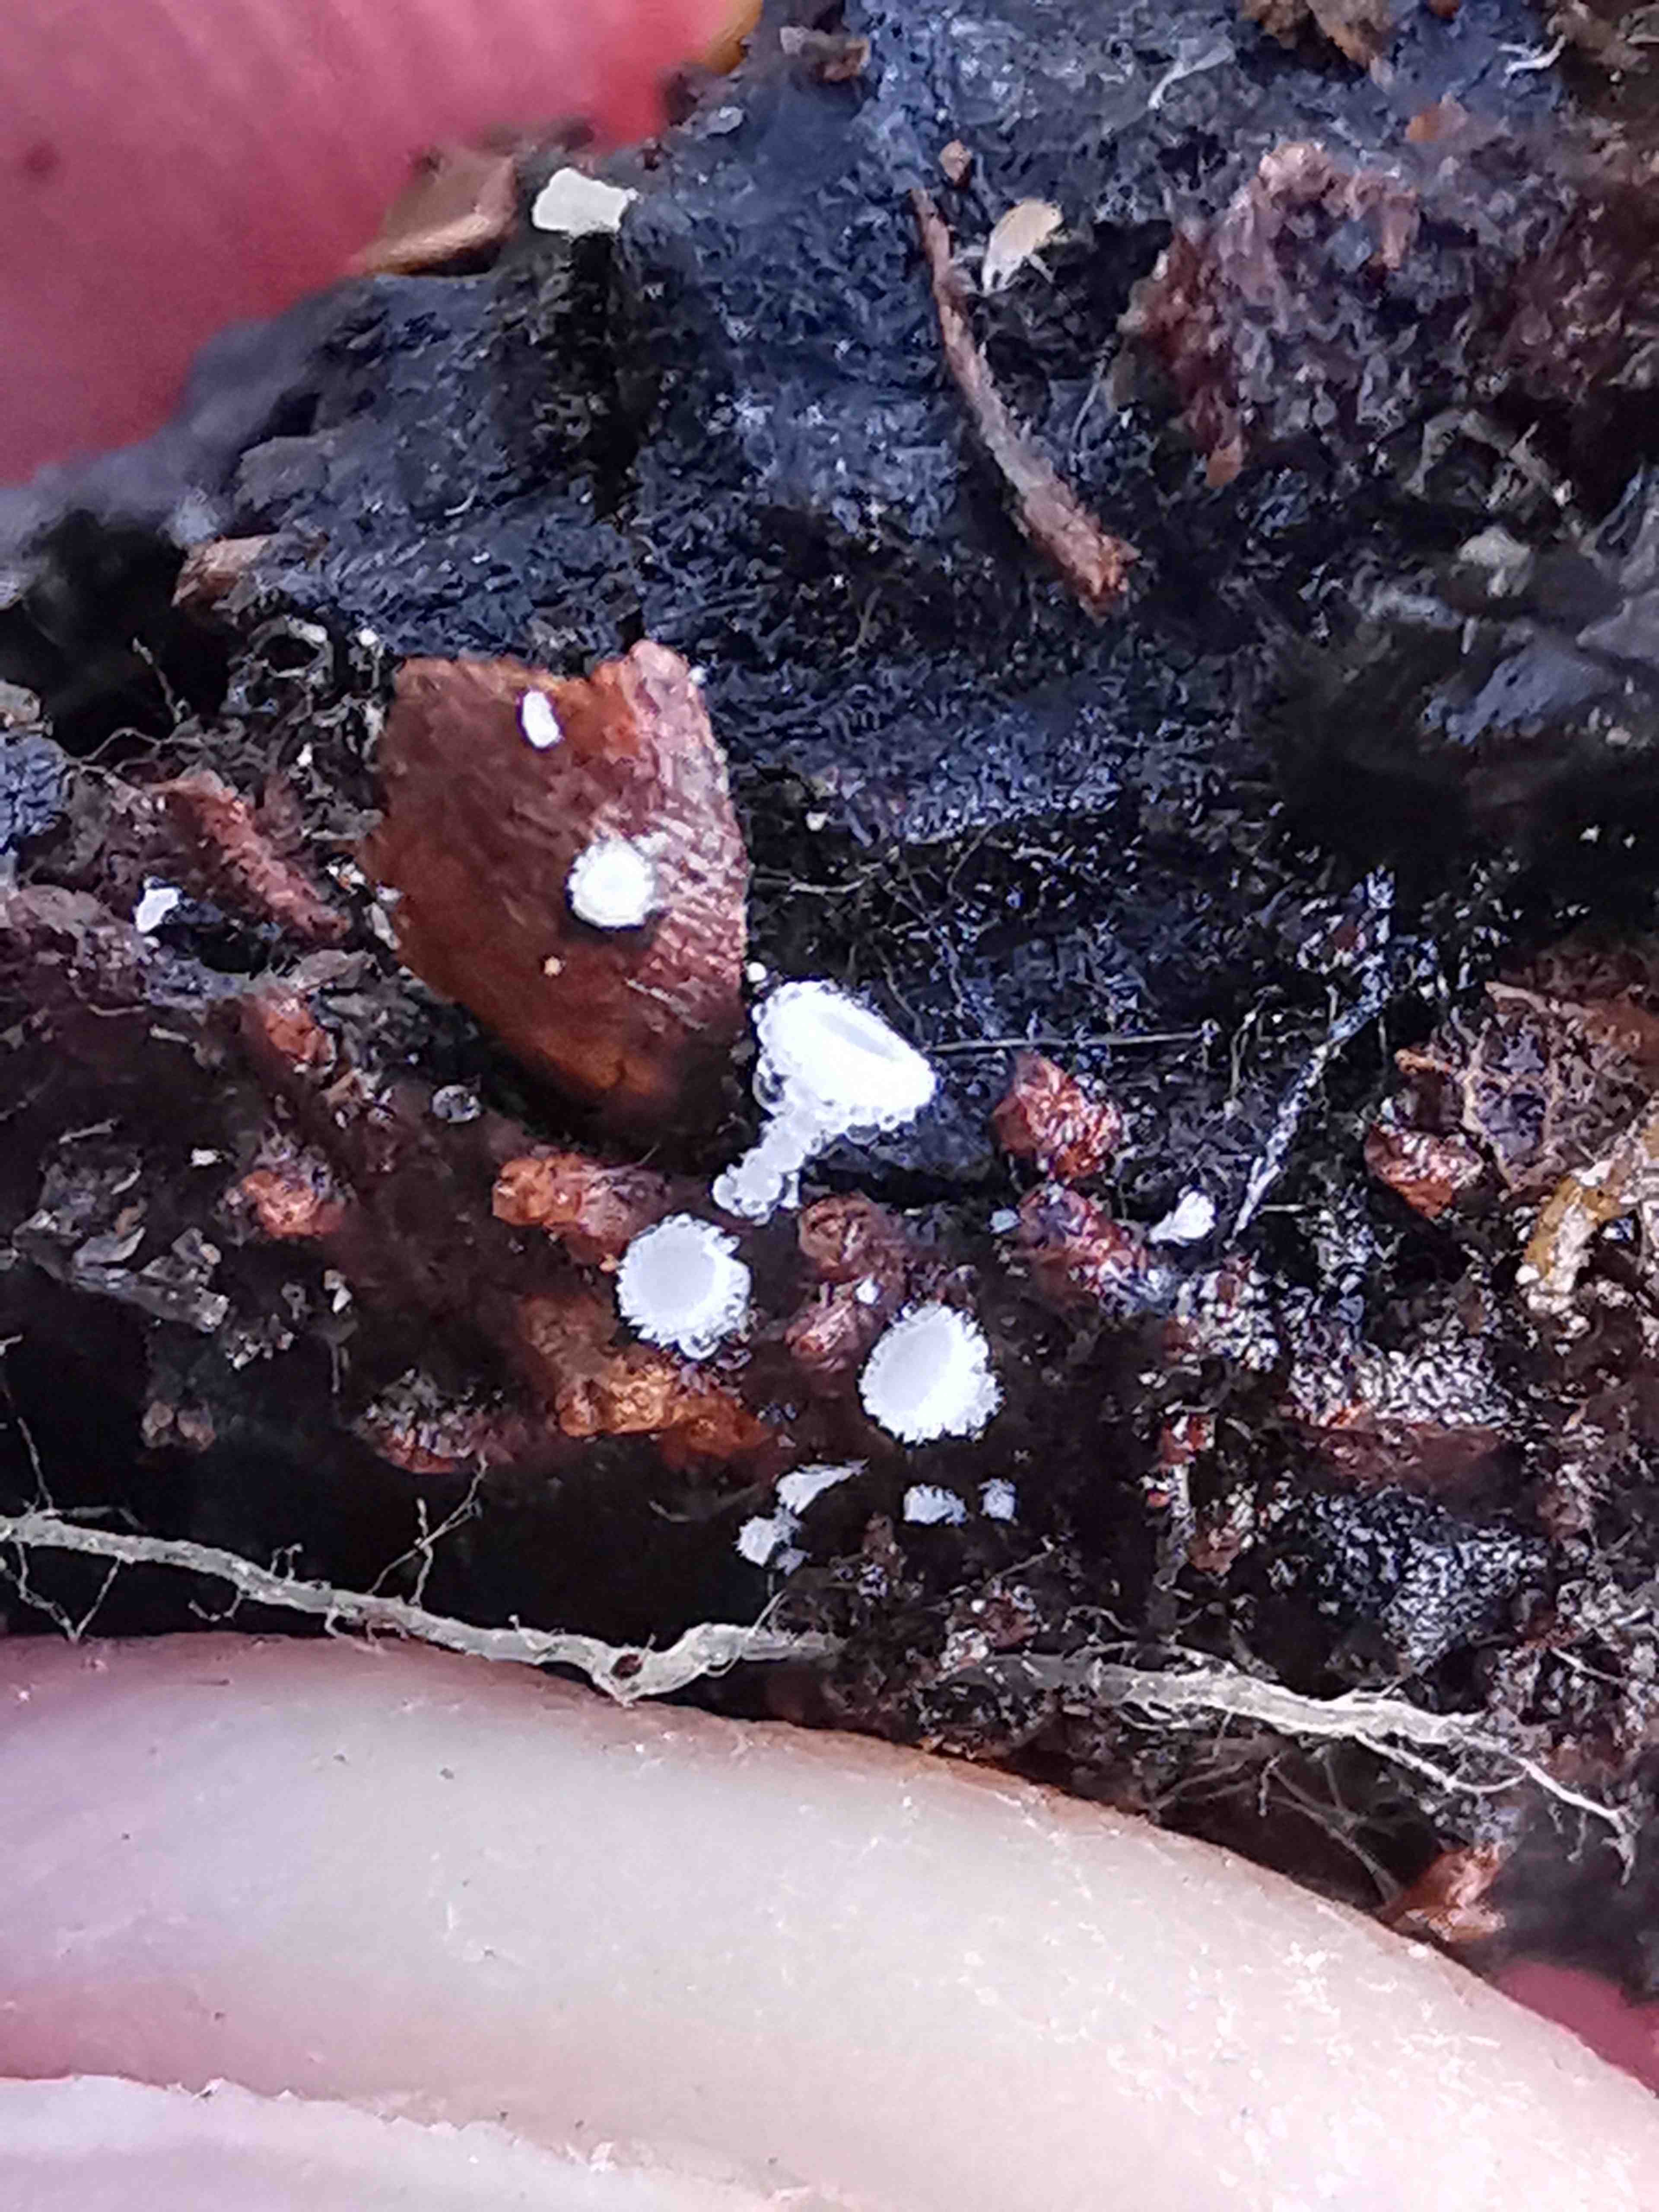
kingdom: Fungi
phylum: Ascomycota
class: Leotiomycetes
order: Helotiales
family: Lachnaceae
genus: Lachnum
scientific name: Lachnum virgineum
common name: jomfru-frynseskive
